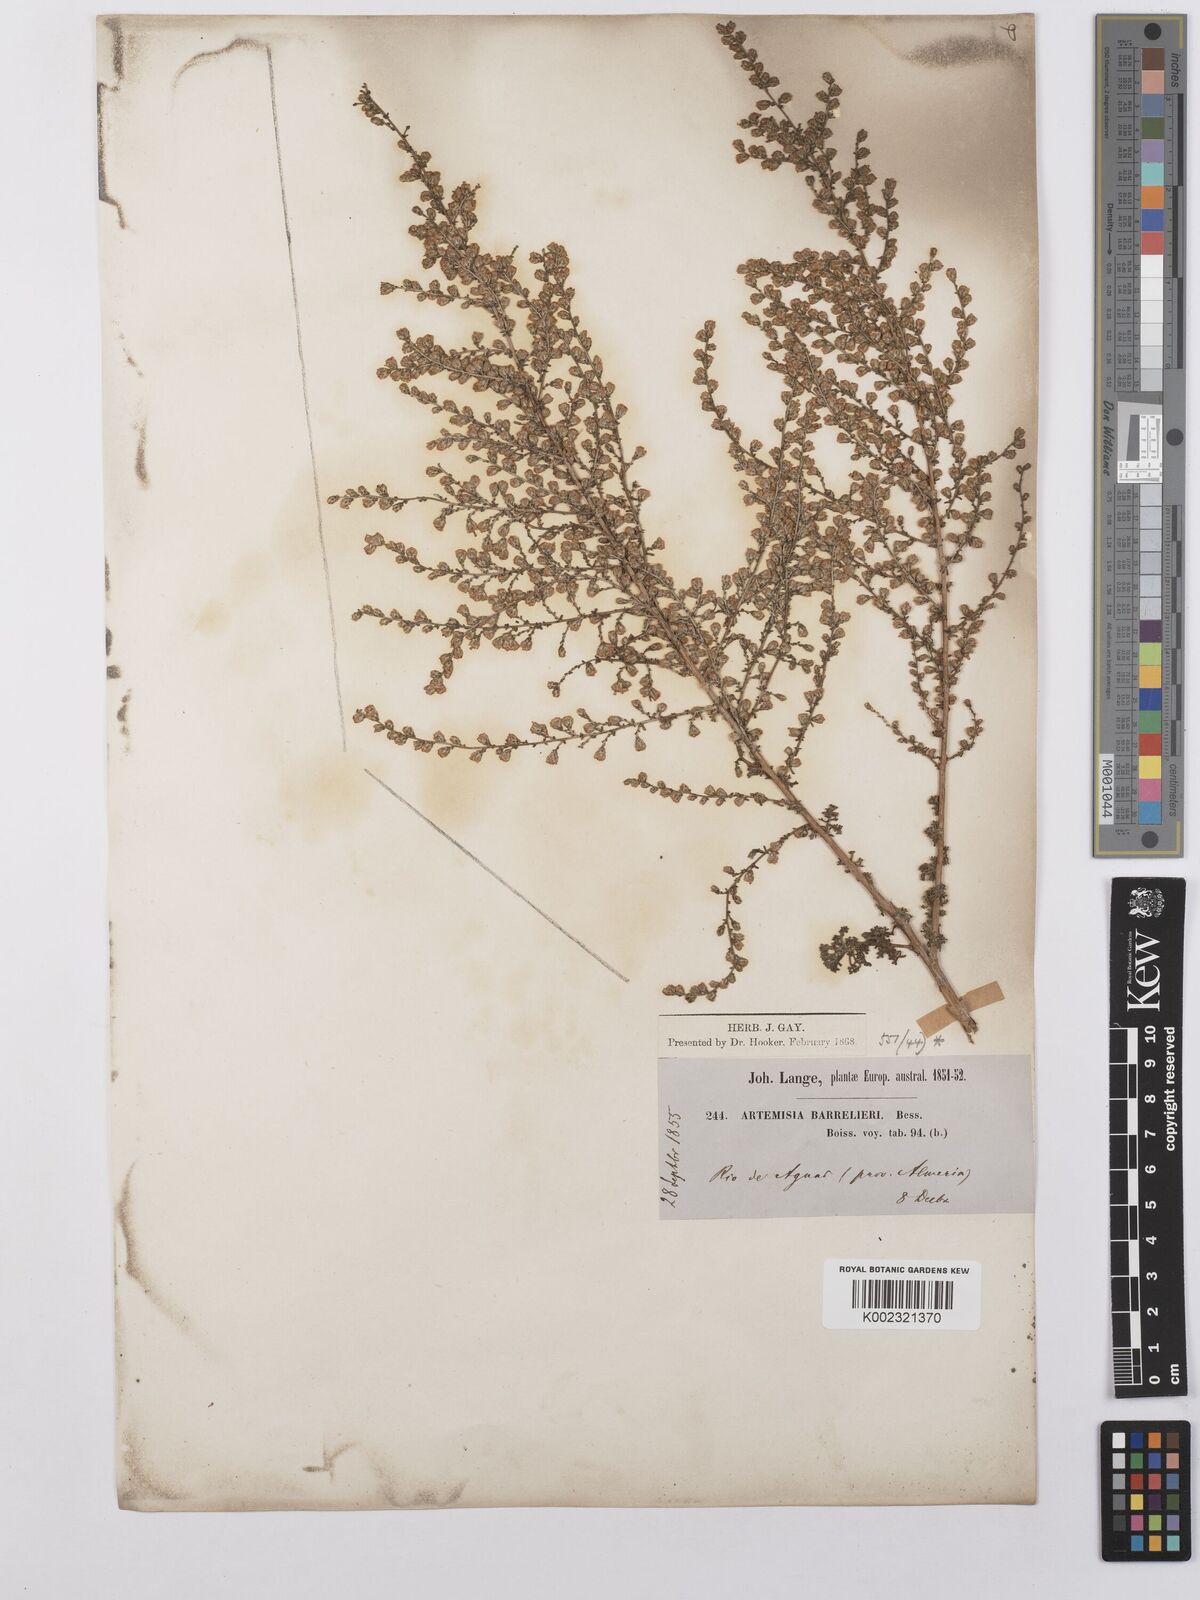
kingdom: Plantae
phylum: Tracheophyta
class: Magnoliopsida
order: Asterales
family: Asteraceae
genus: Artemisia
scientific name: Artemisia barrelieri
